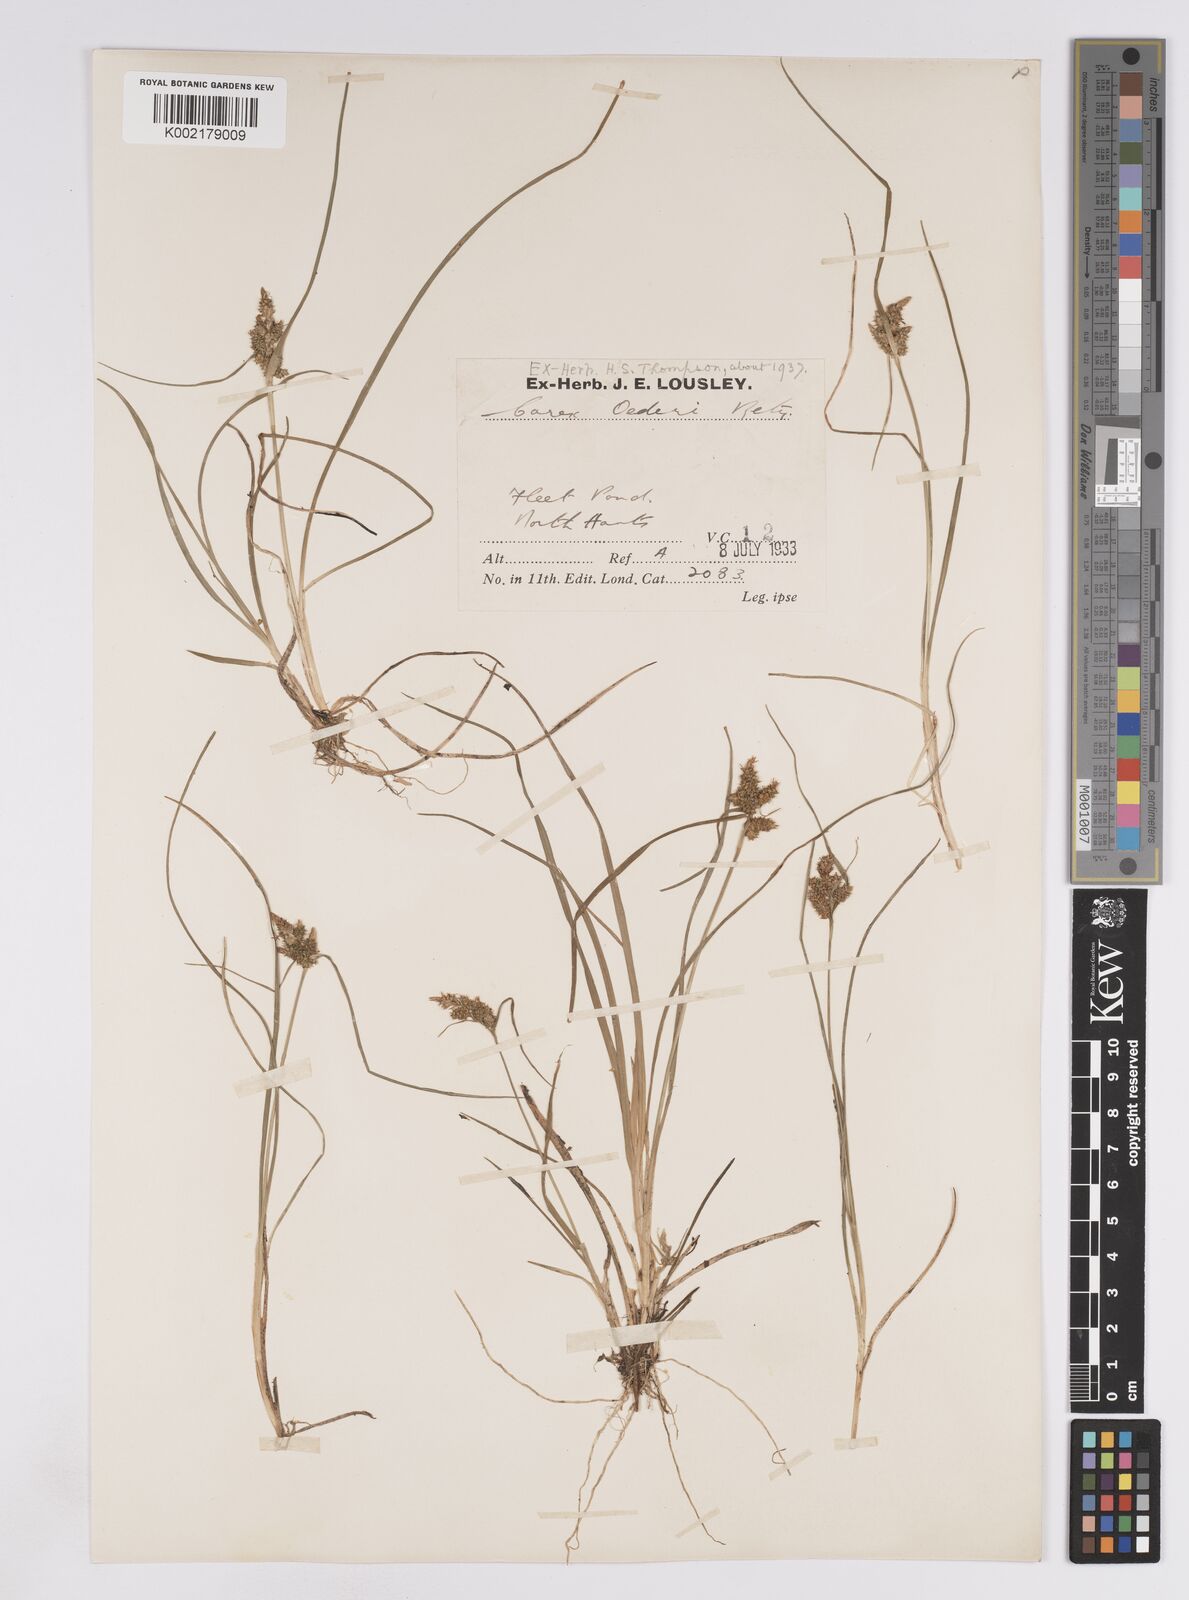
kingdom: Plantae
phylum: Tracheophyta
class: Liliopsida
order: Poales
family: Cyperaceae
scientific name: Cyperaceae
